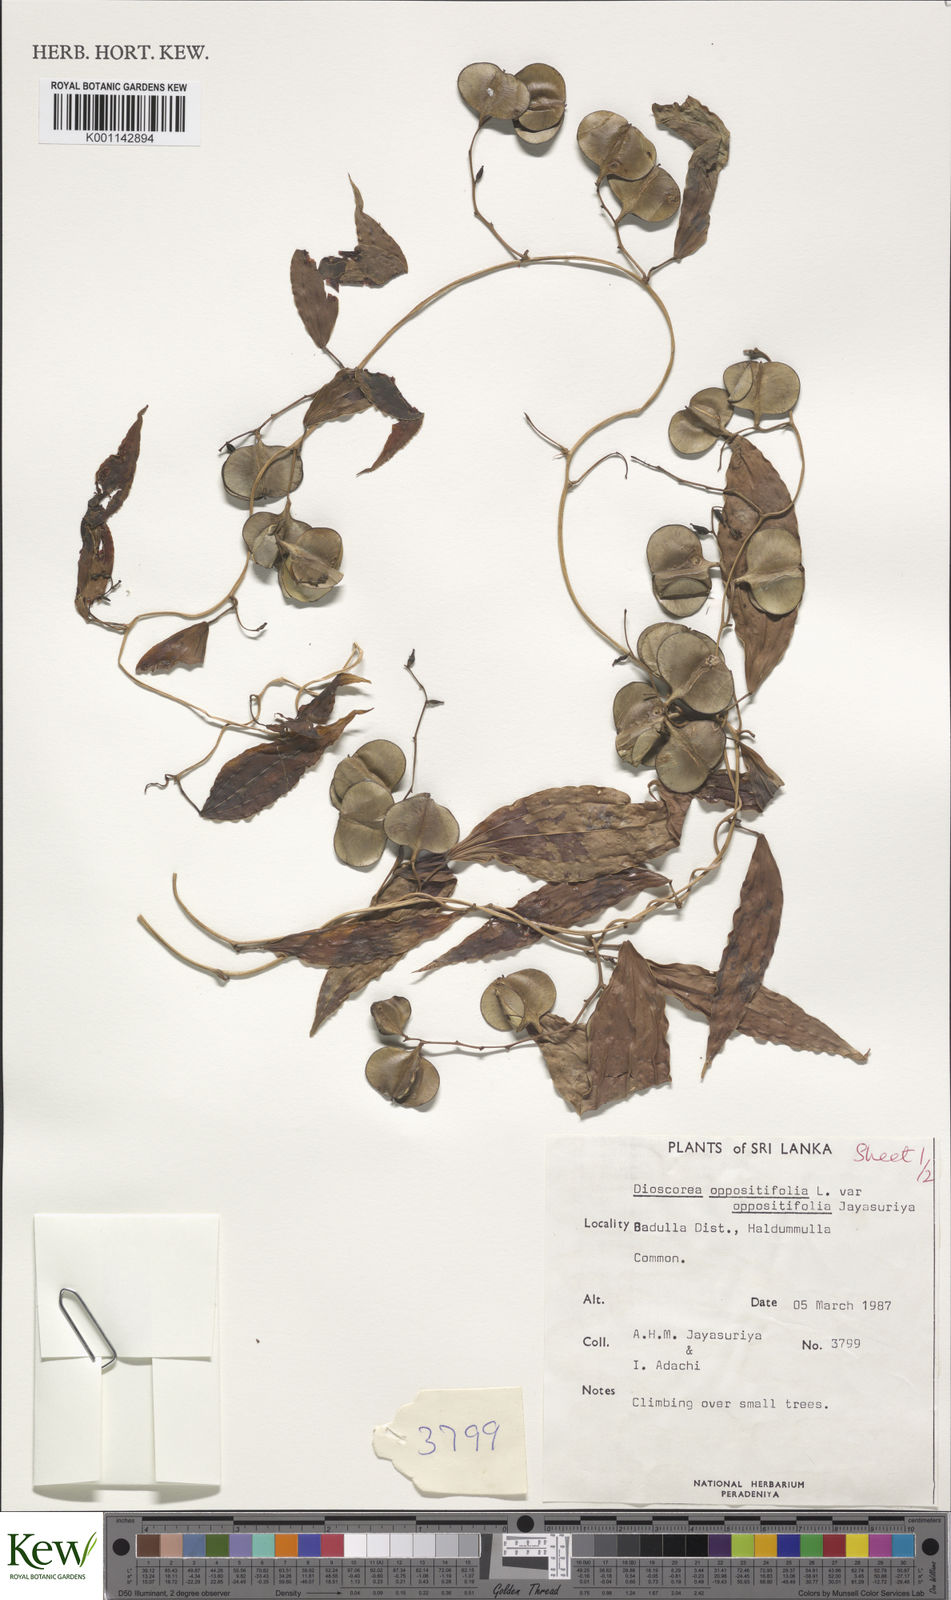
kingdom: Plantae
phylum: Tracheophyta
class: Liliopsida
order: Dioscoreales
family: Dioscoreaceae
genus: Dioscorea
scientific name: Dioscorea oppositifolia
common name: Chinese yam
